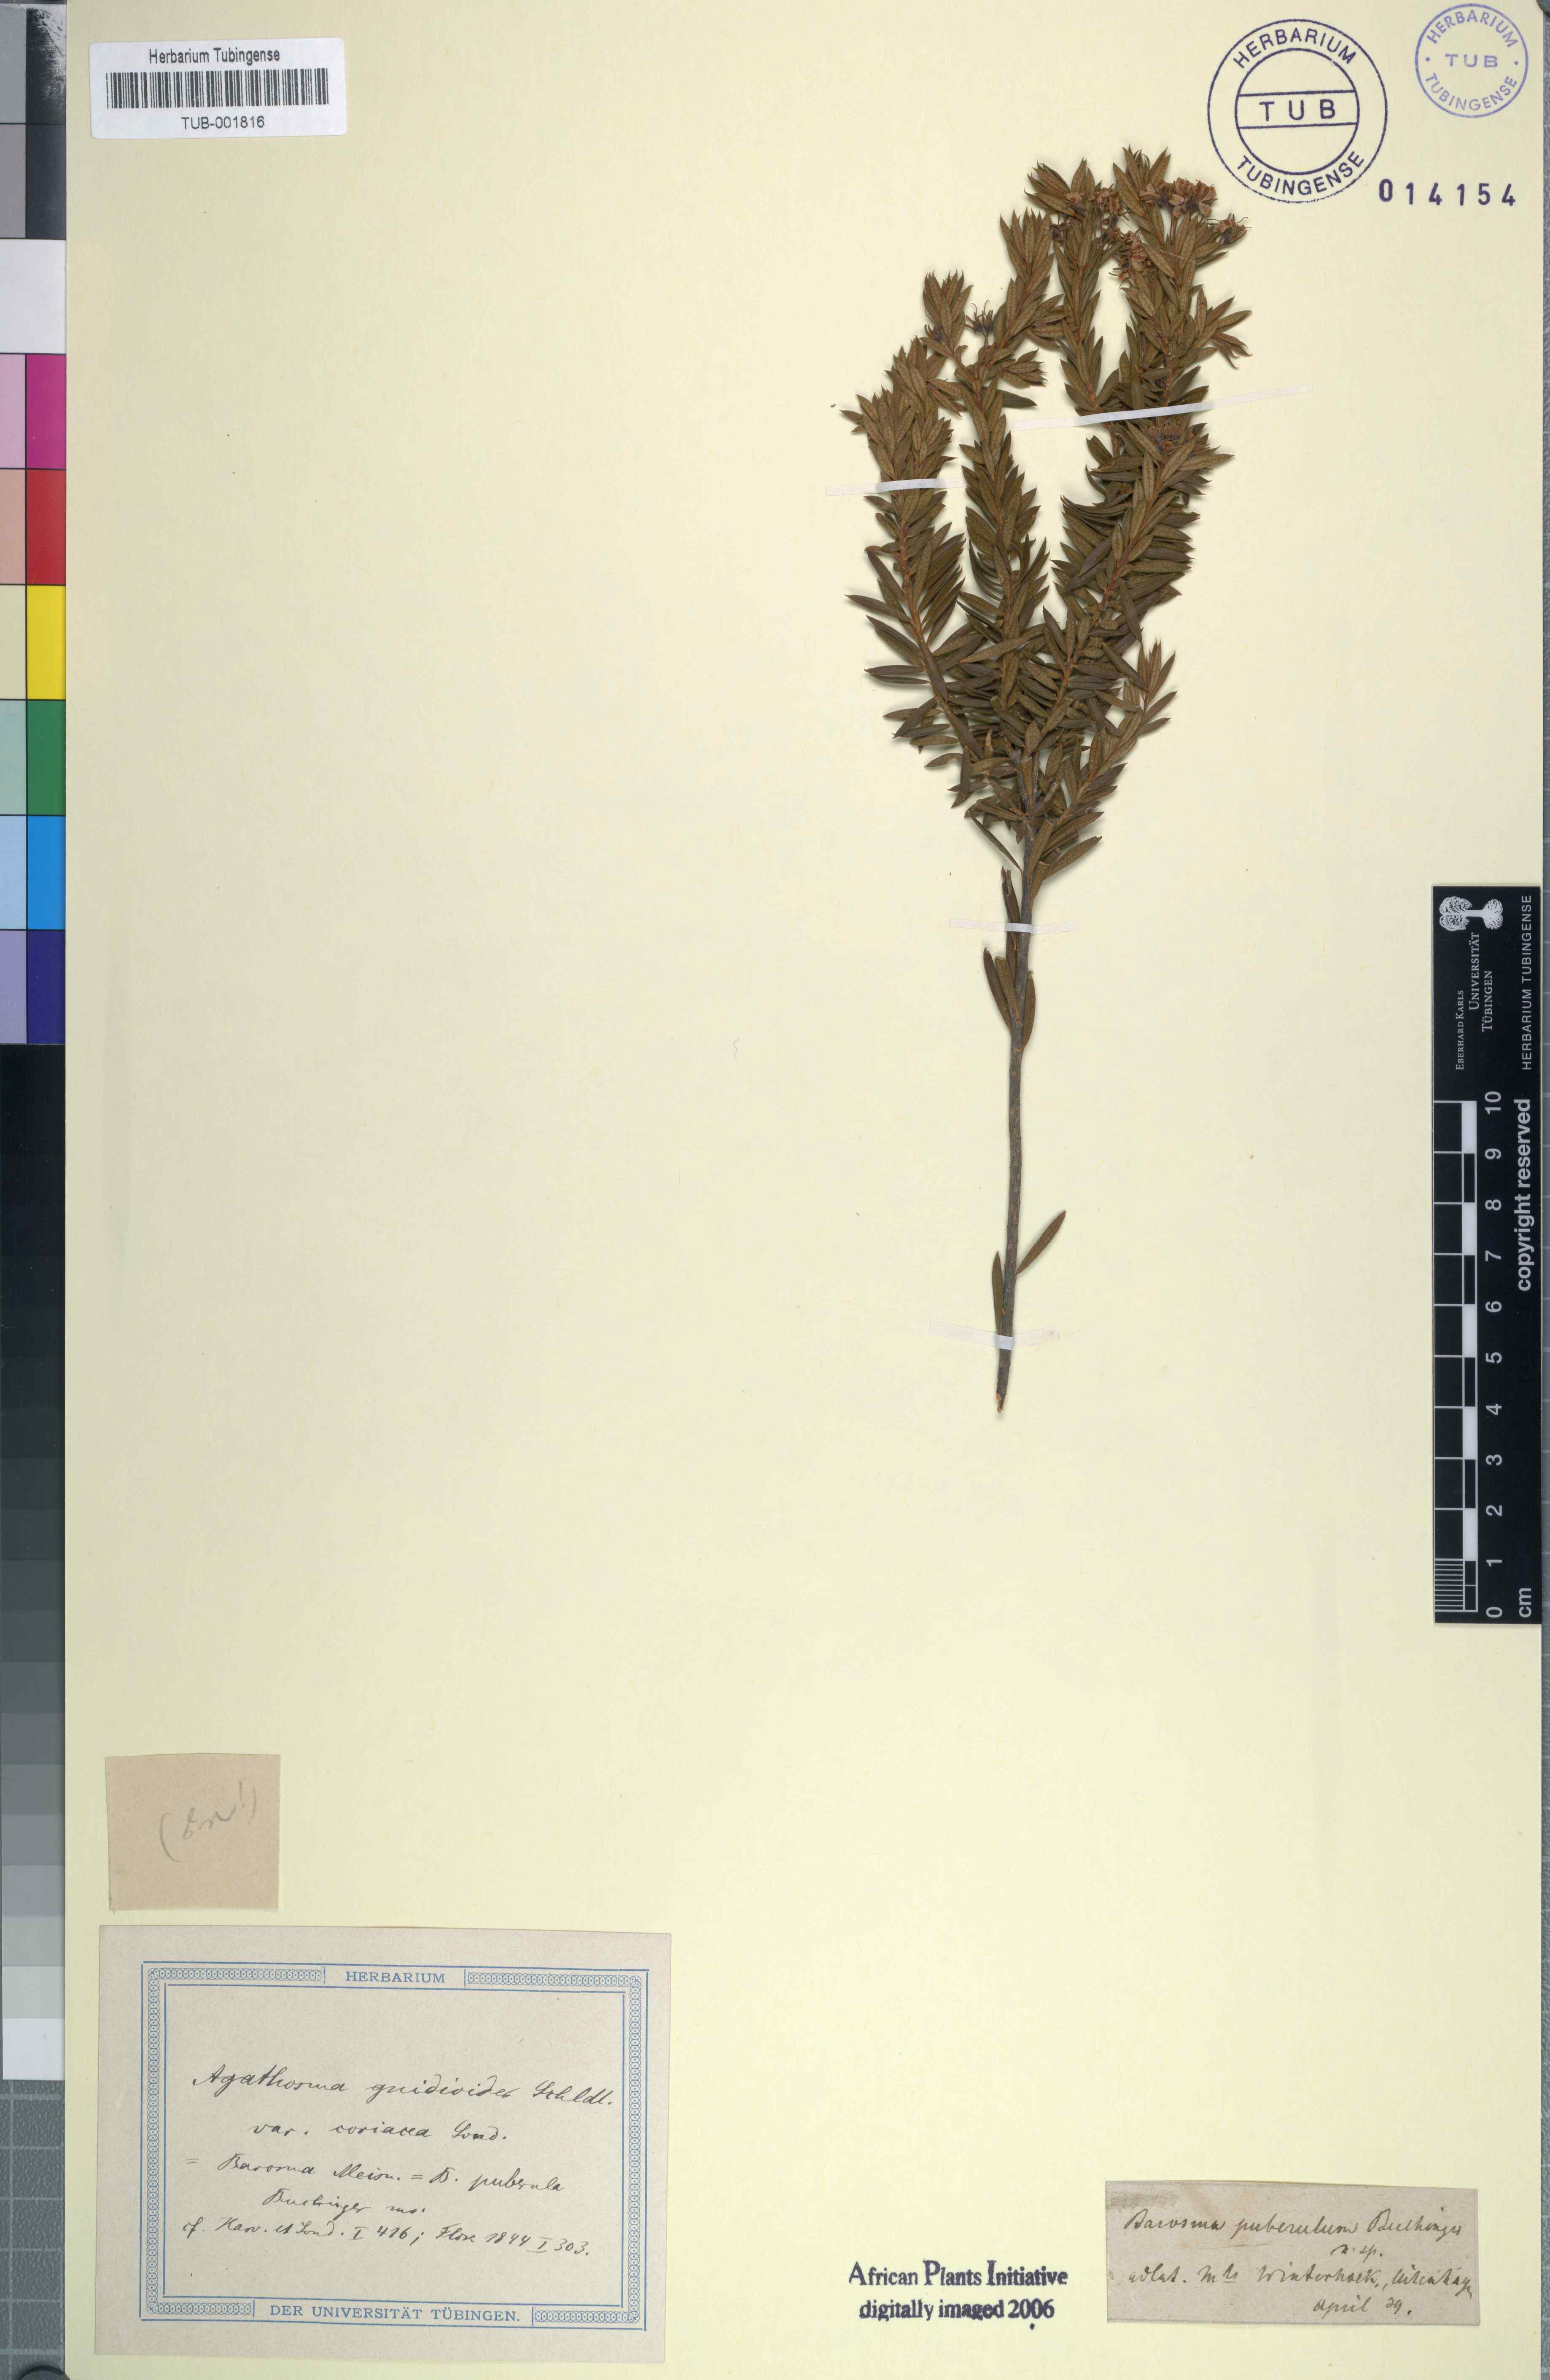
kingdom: Plantae
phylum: Tracheophyta
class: Magnoliopsida
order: Sapindales
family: Rutaceae
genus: Agathosma
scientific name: Agathosma puberula
